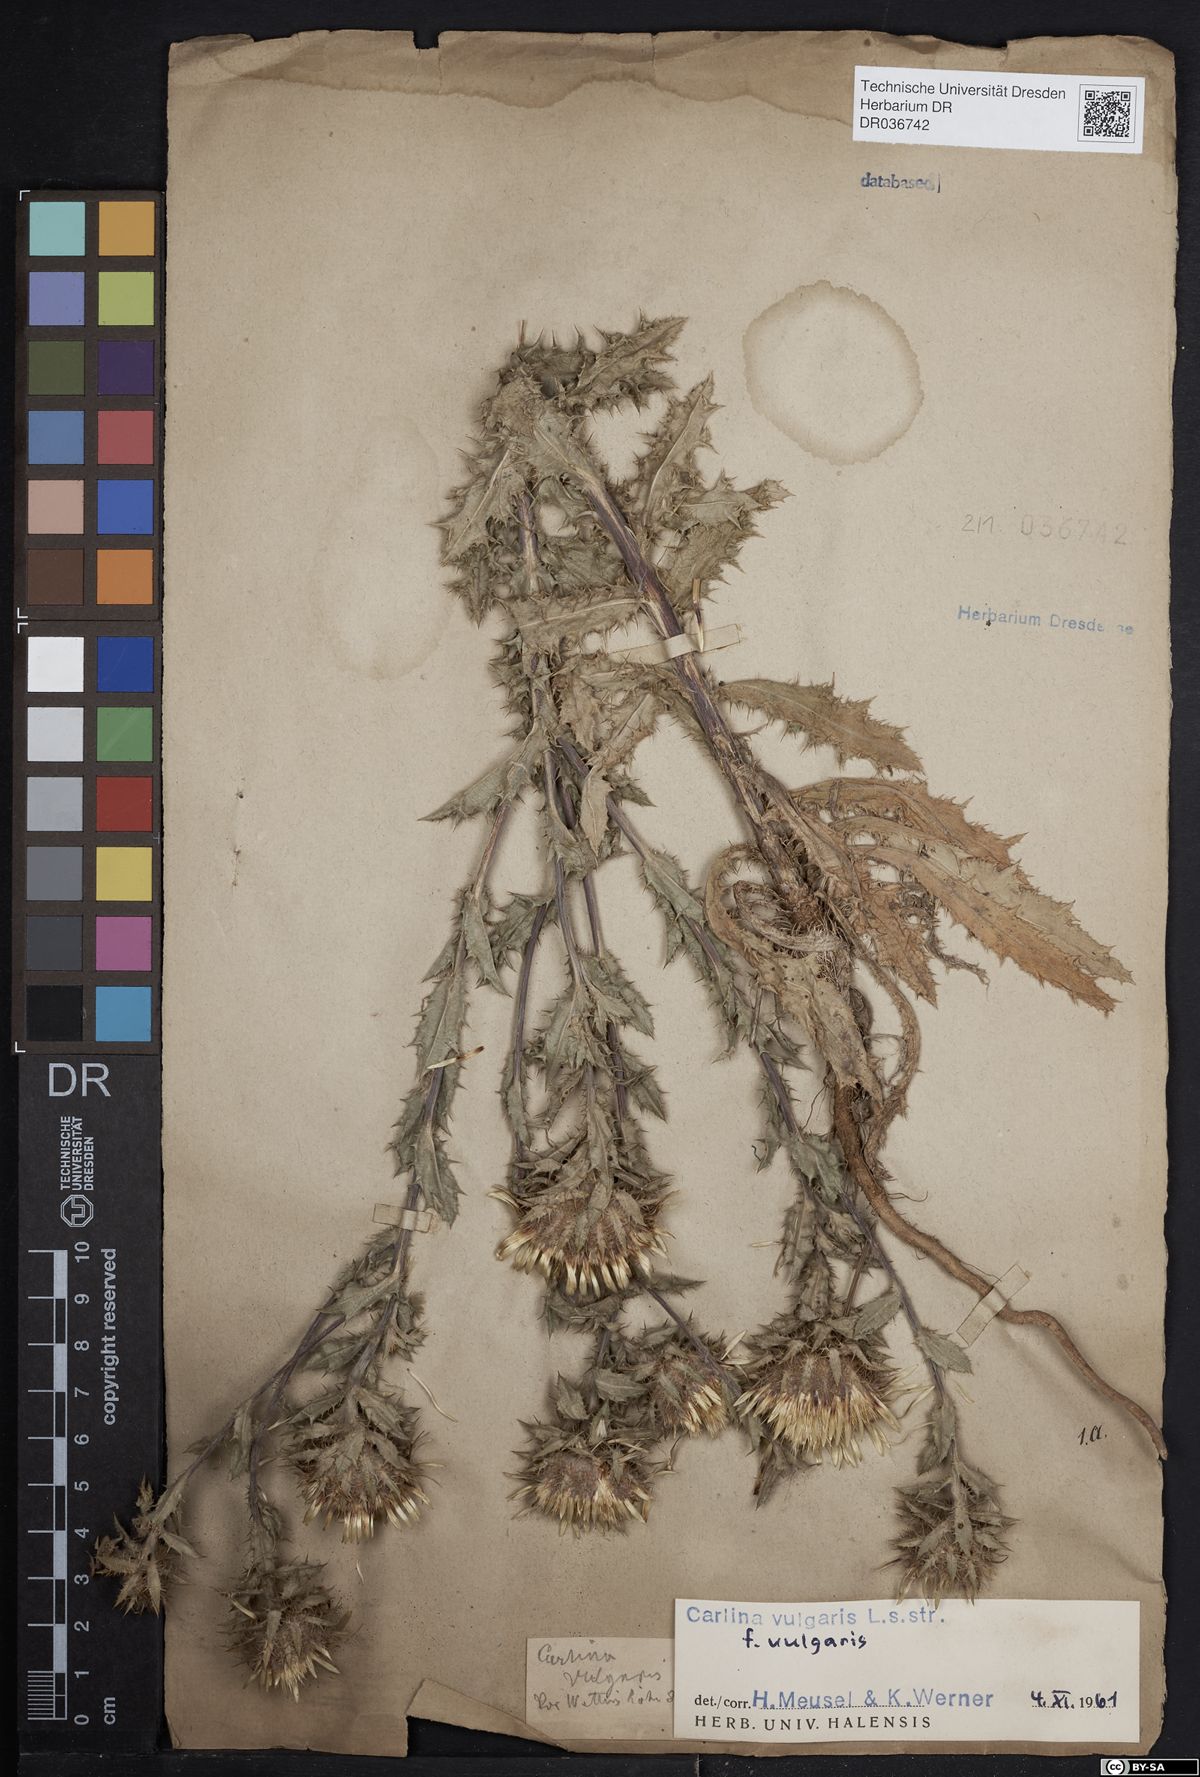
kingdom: Plantae
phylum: Tracheophyta
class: Magnoliopsida
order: Asterales
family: Asteraceae
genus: Carlina
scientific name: Carlina vulgaris
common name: Carline thistle
